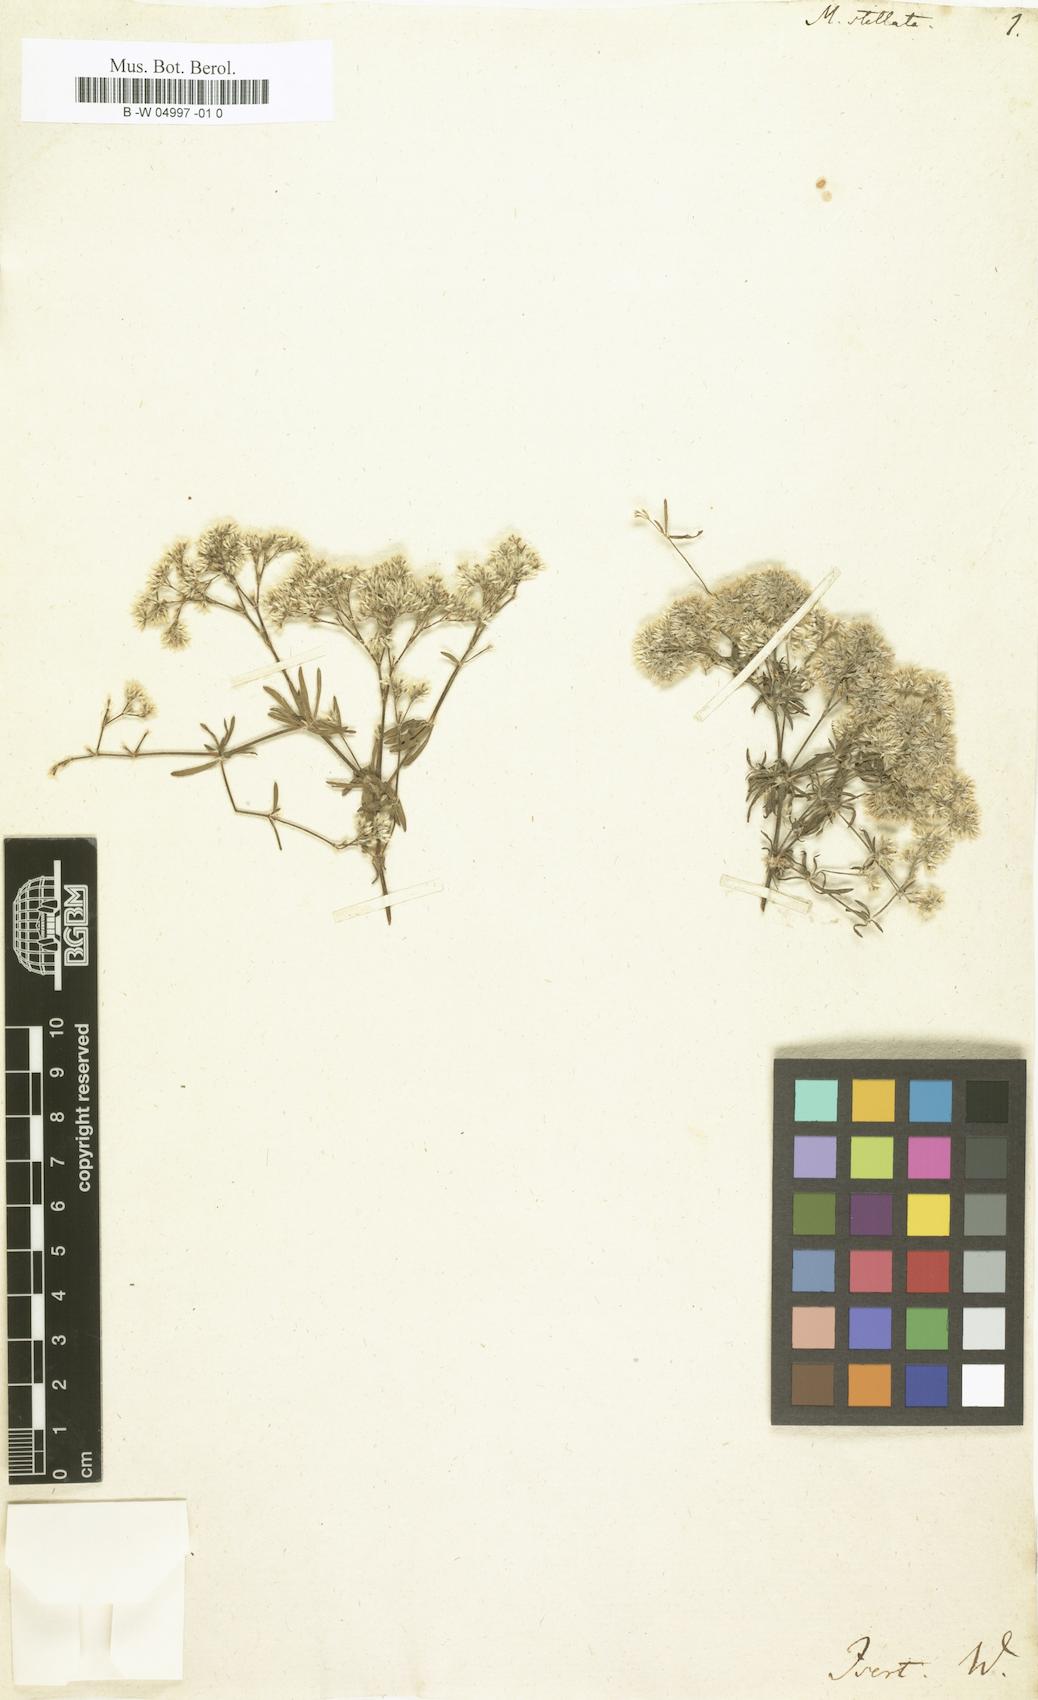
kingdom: Plantae
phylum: Tracheophyta
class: Magnoliopsida
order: Caryophyllales
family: Caryophyllaceae
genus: Polycarpaea
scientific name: Polycarpaea stellata
